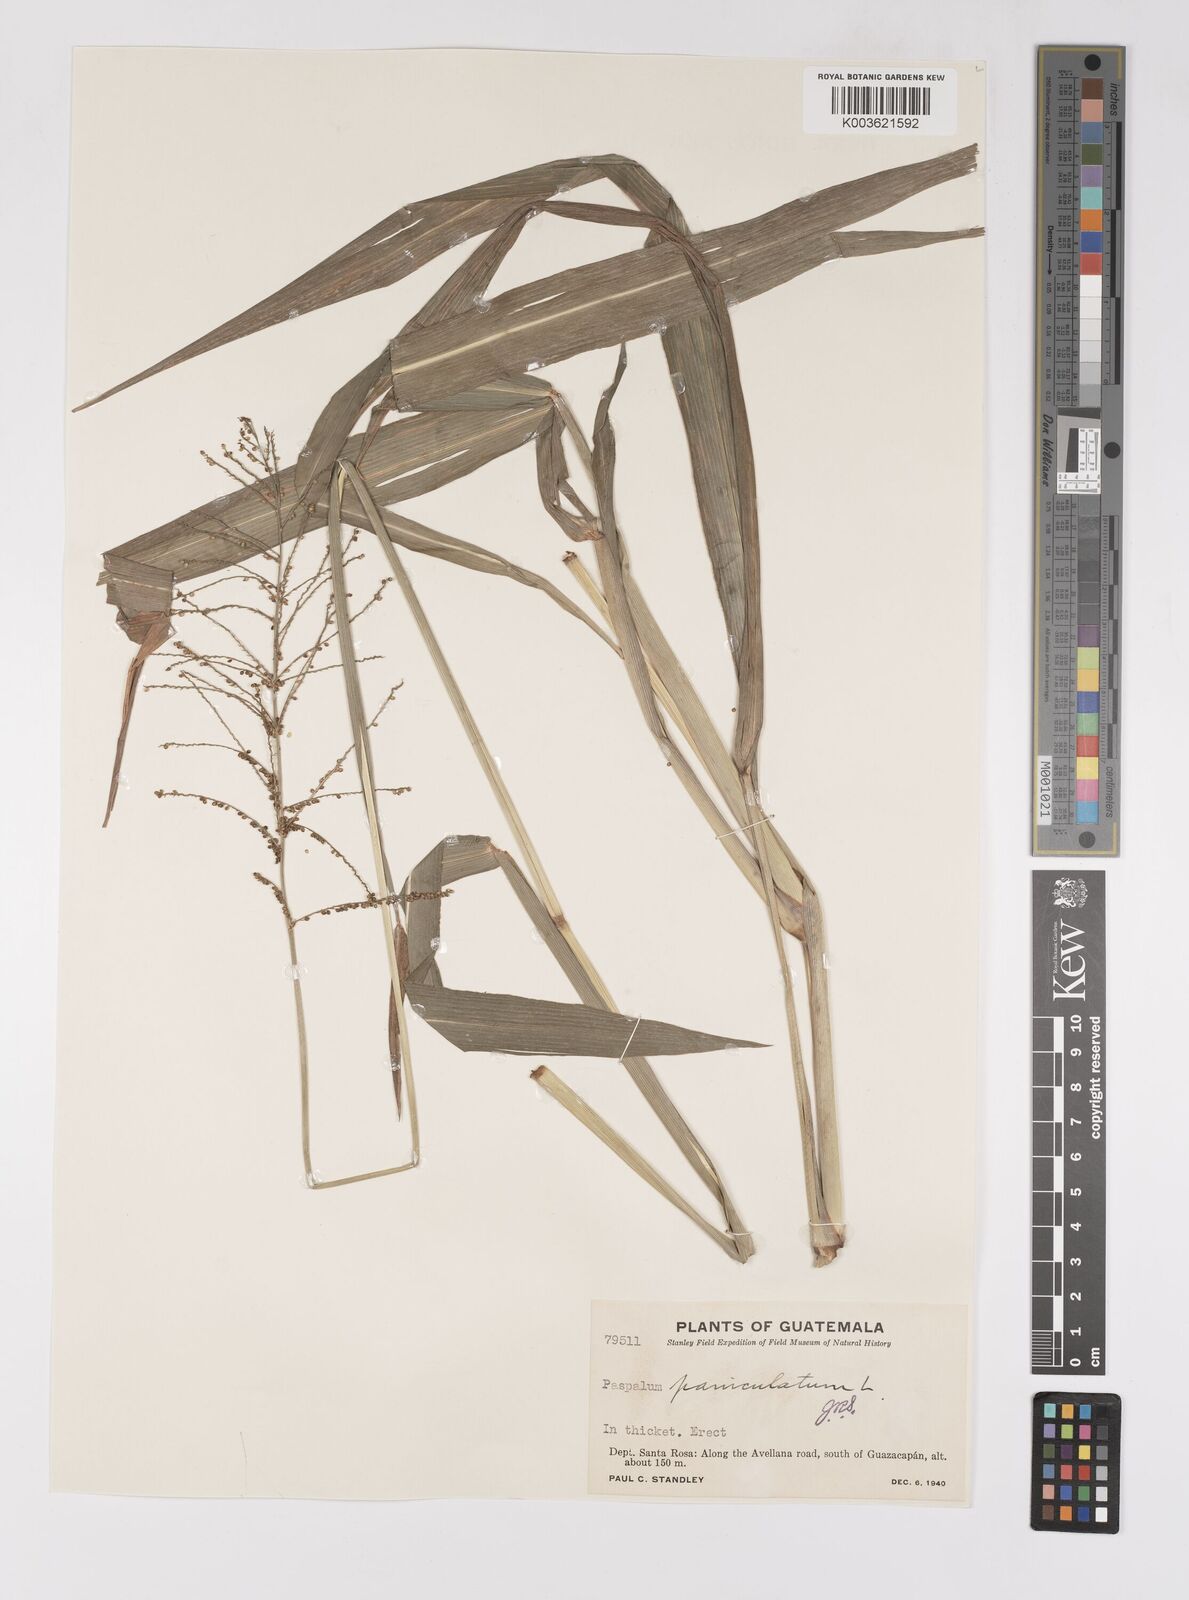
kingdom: Plantae
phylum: Tracheophyta
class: Liliopsida
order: Poales
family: Poaceae
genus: Paspalum
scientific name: Paspalum paniculatum
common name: Arrocillo
